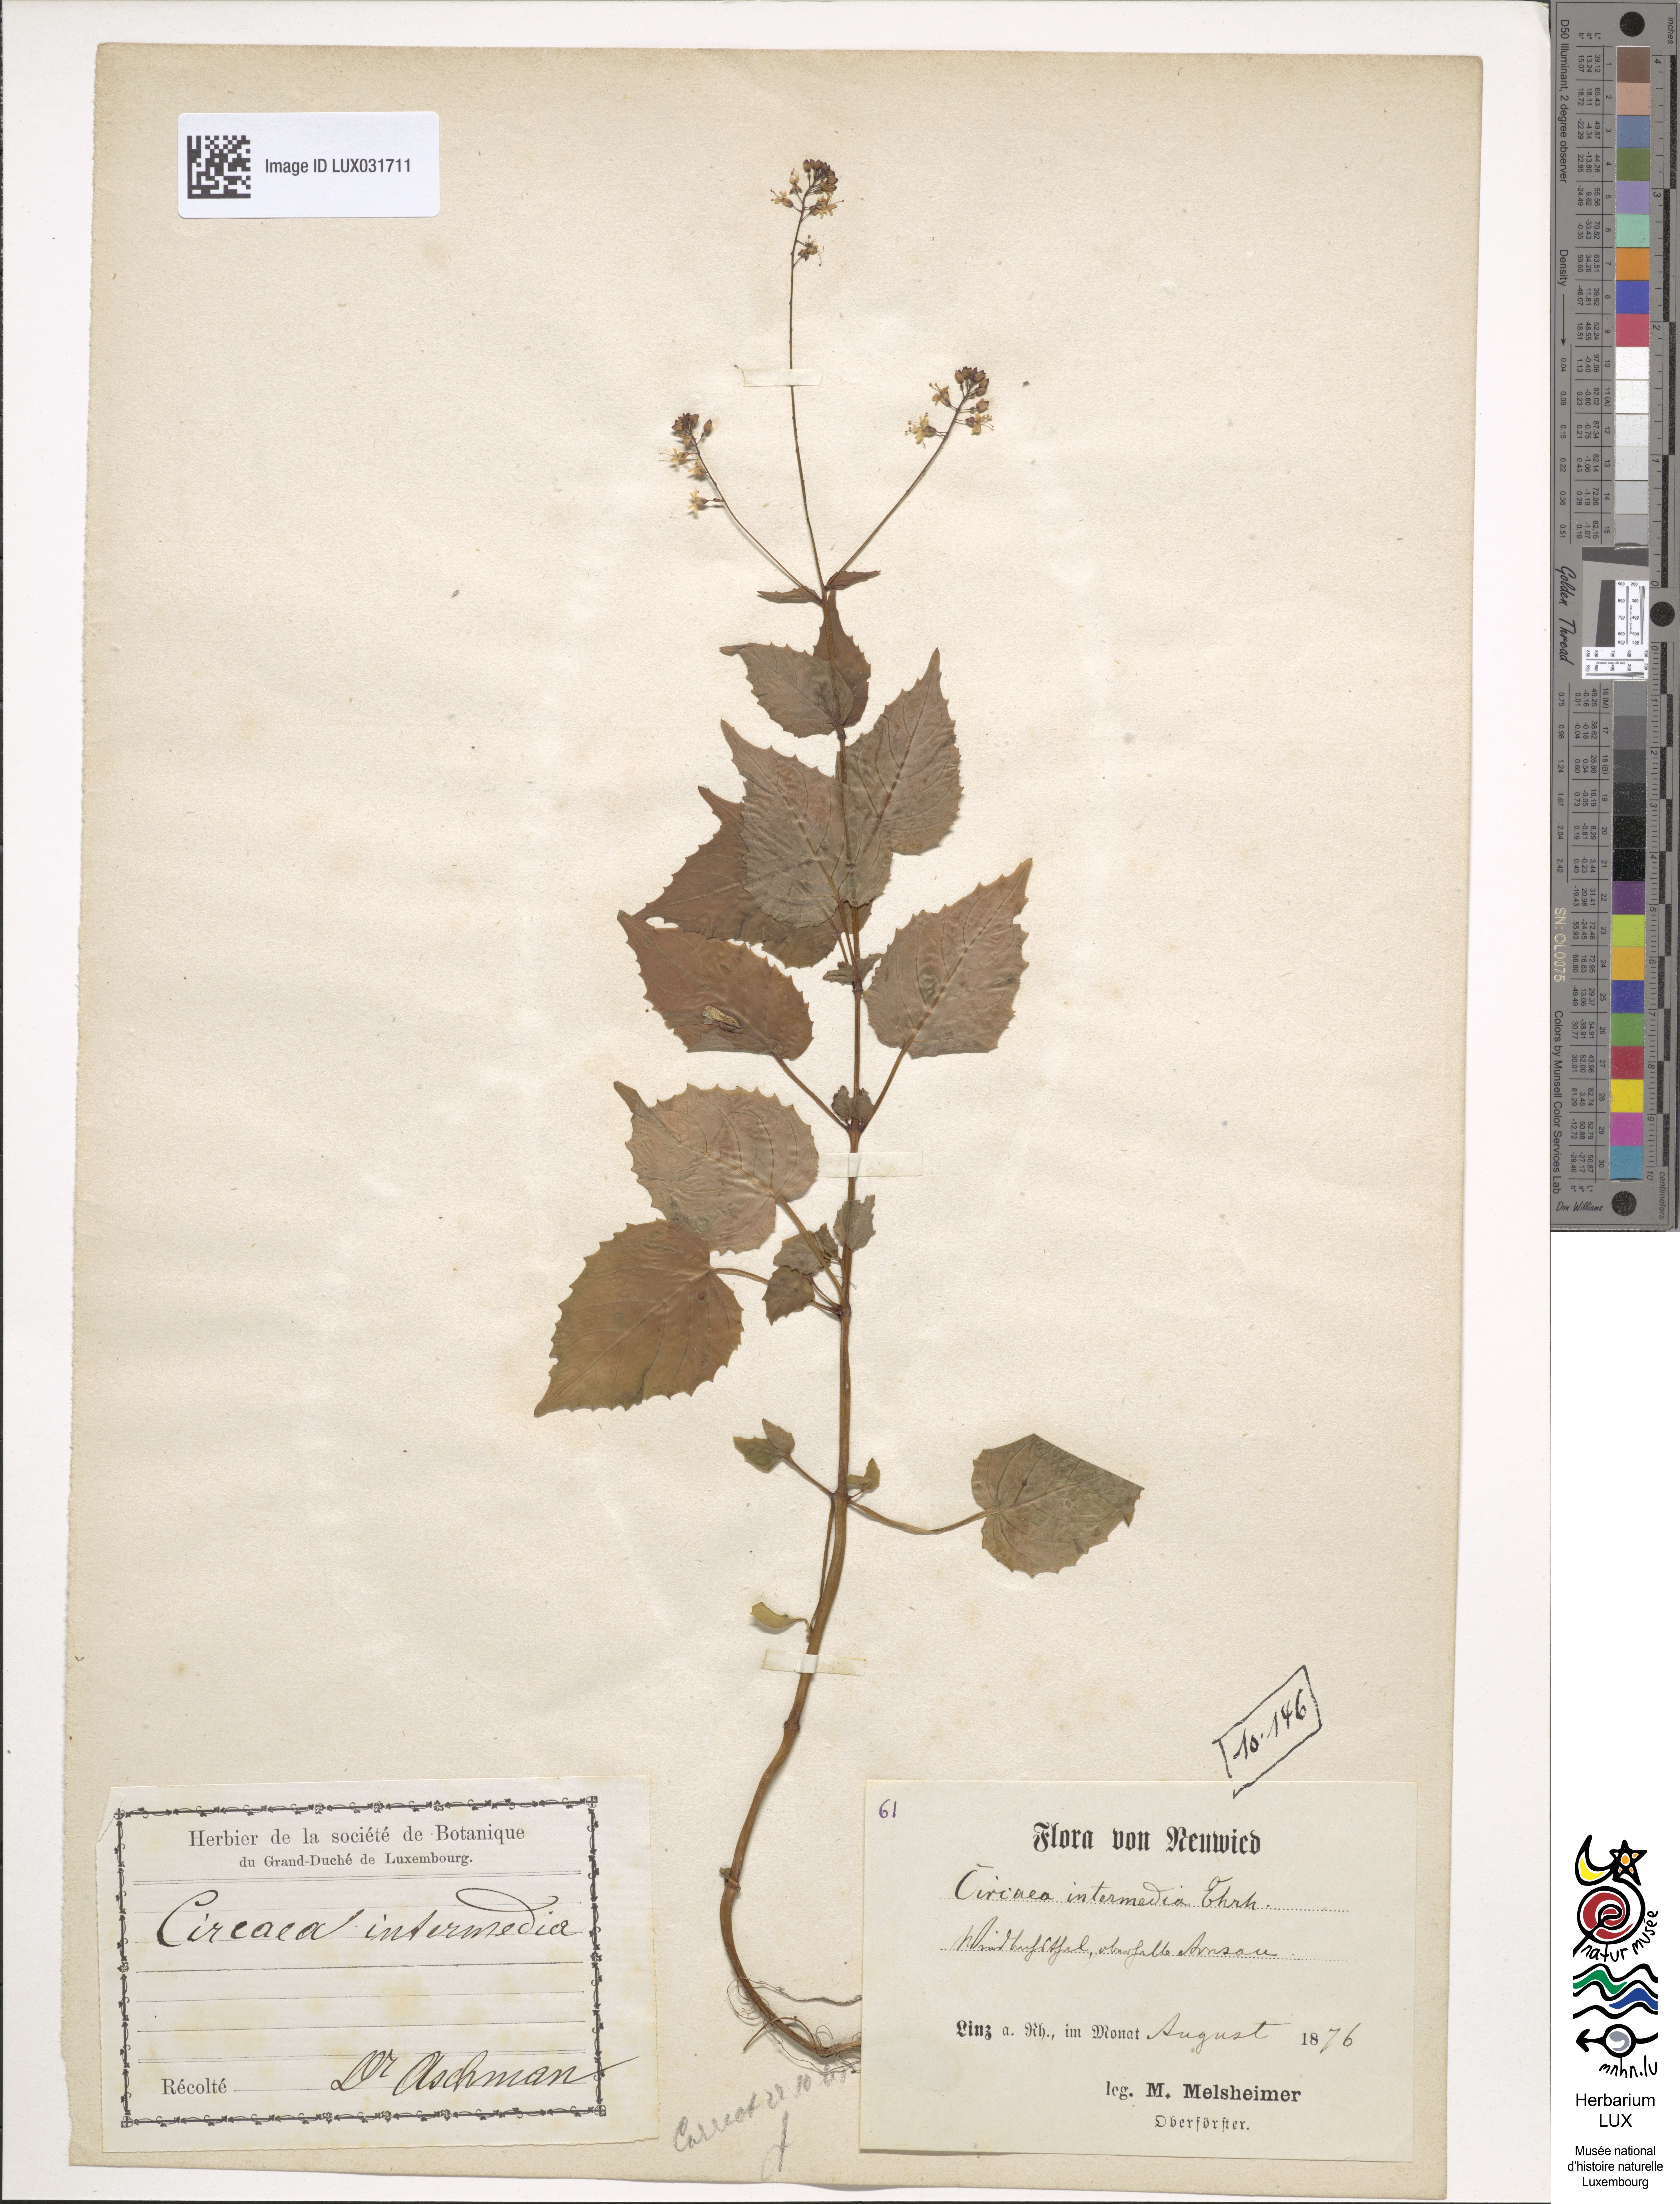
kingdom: Plantae
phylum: Tracheophyta
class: Magnoliopsida
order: Myrtales
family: Onagraceae
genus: Circaea
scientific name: Circaea intermedia
